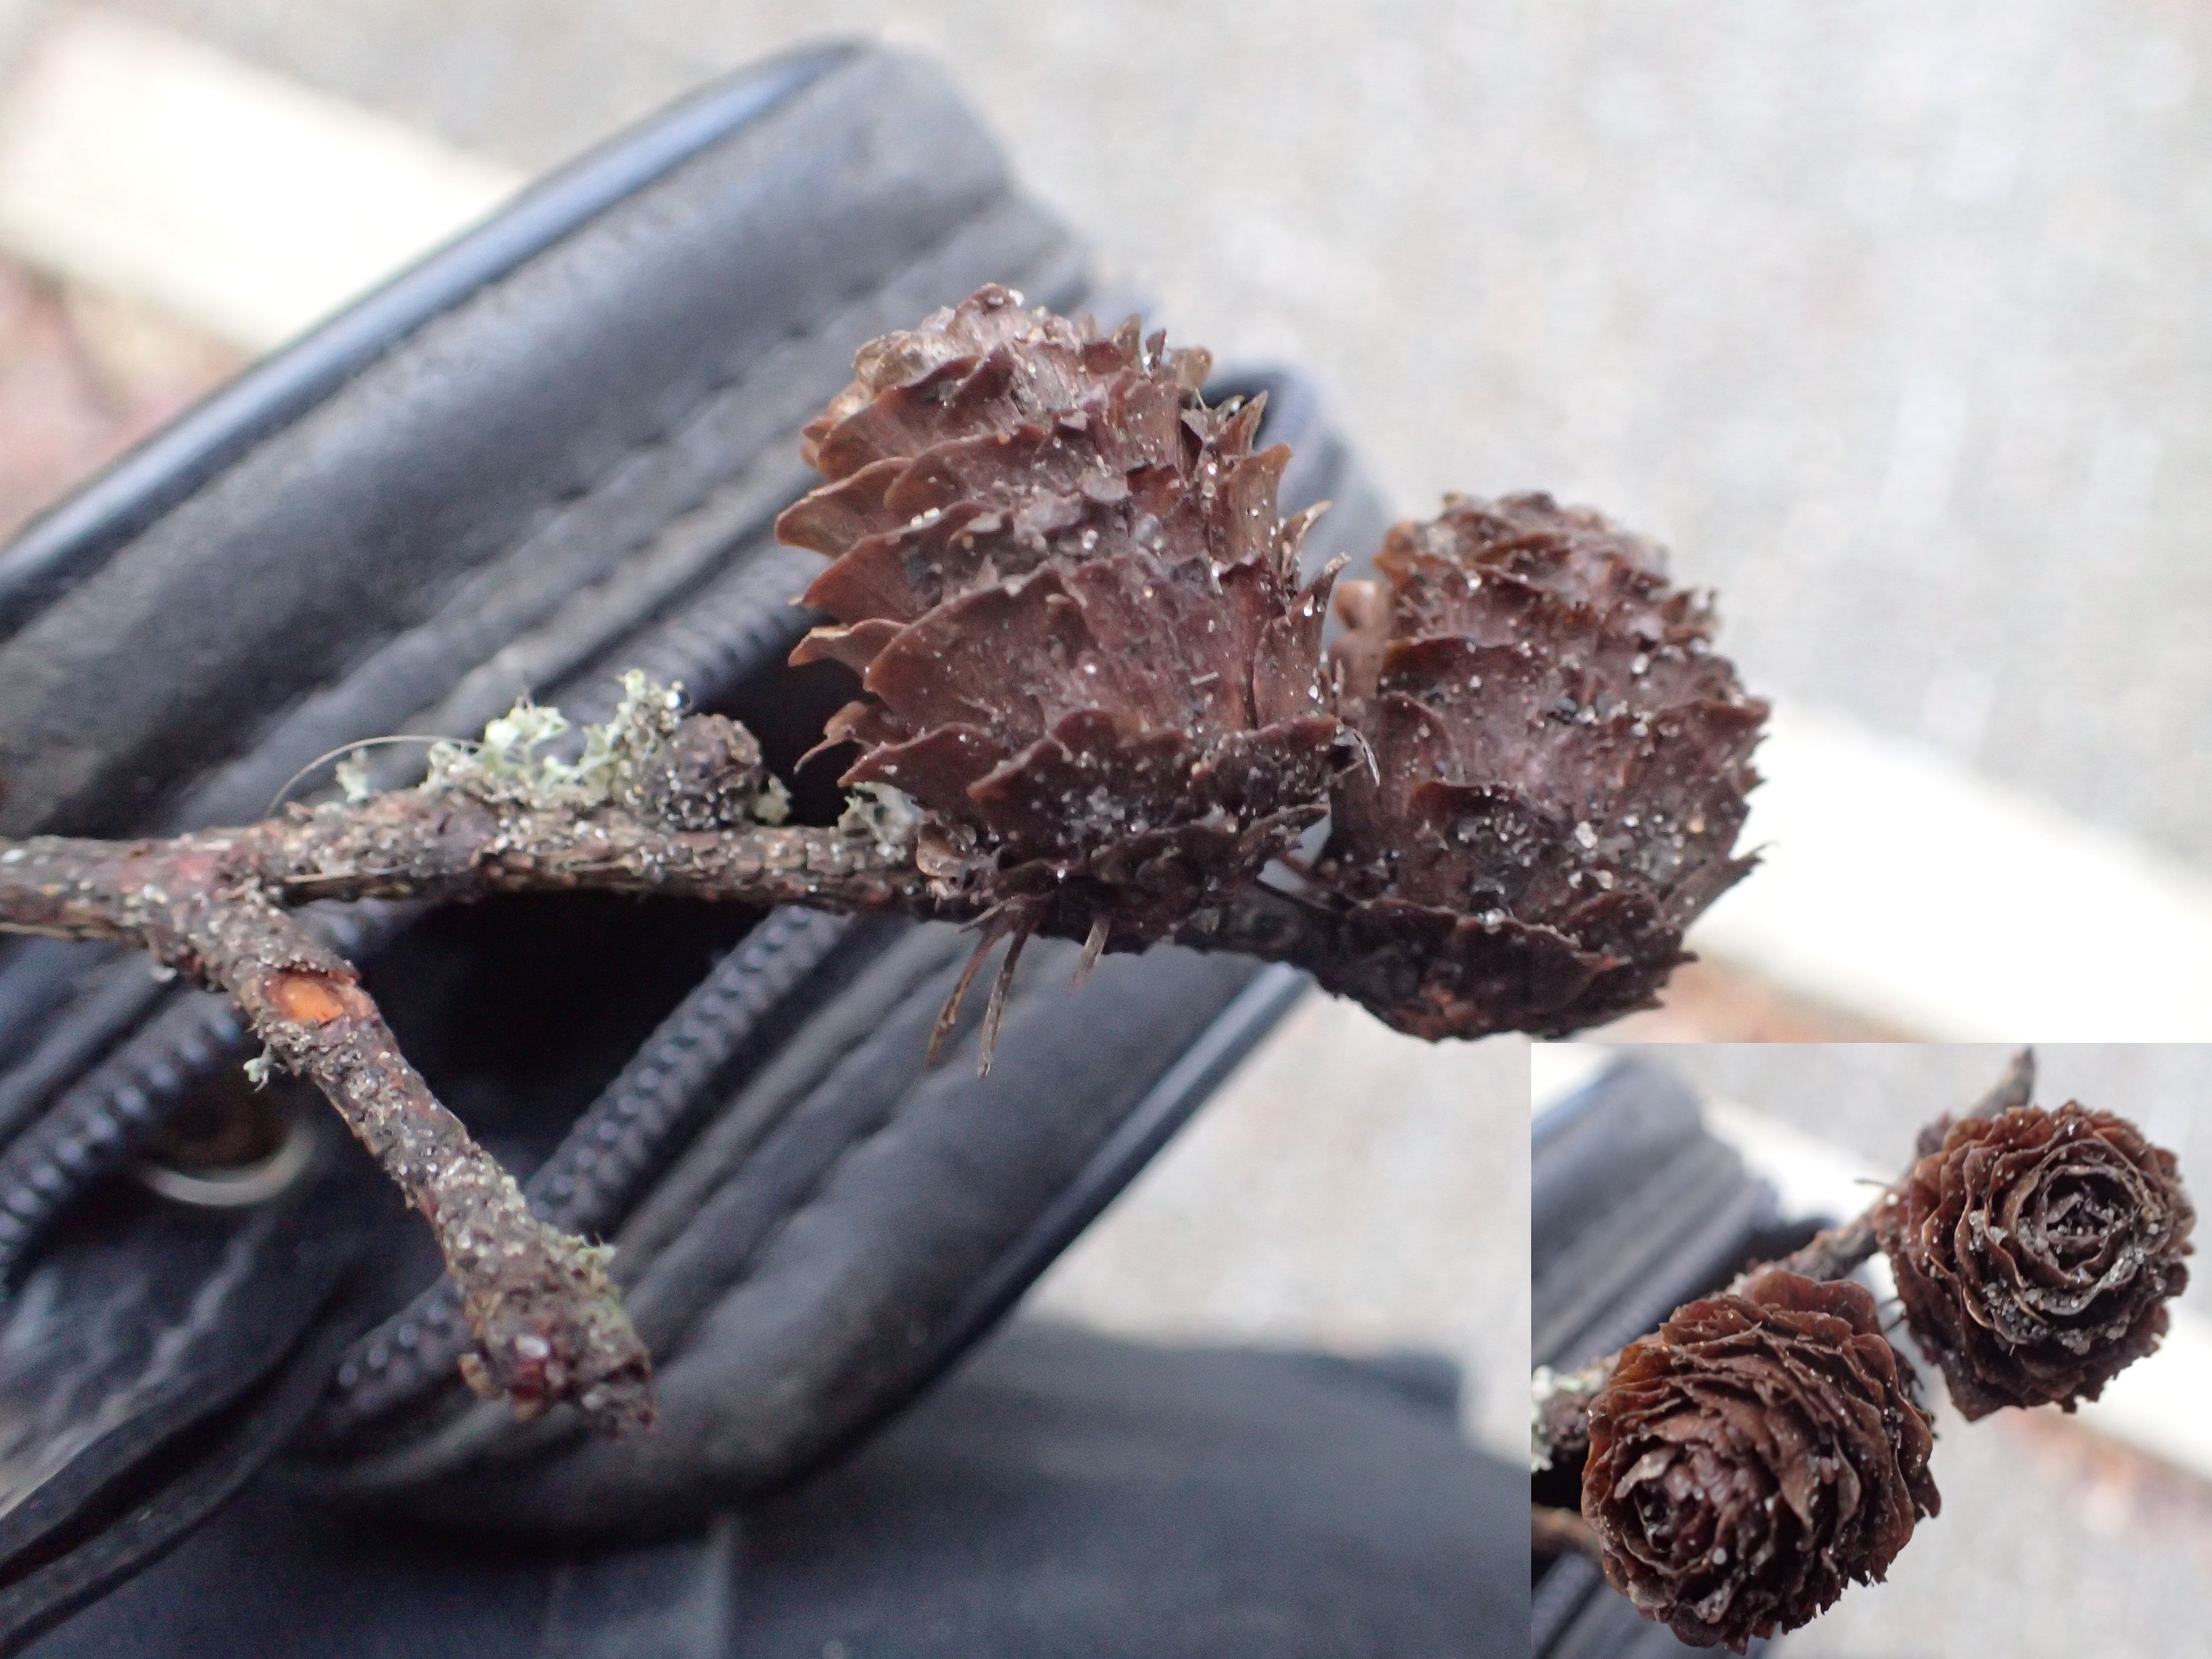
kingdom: Plantae
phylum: Tracheophyta
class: Pinopsida
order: Pinales
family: Pinaceae
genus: Larix
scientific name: Larix marschlinsii
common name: Hybrid-lærk
